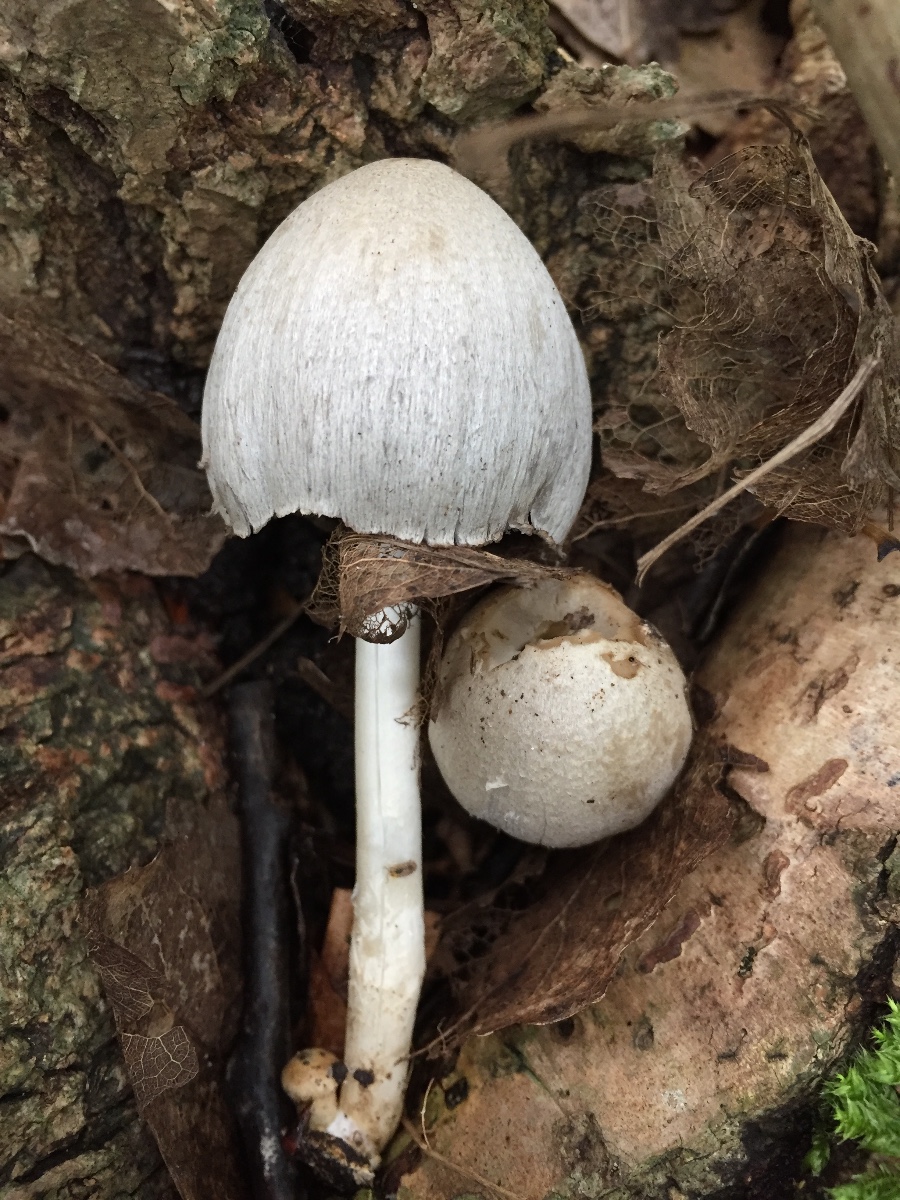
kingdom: Fungi
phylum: Basidiomycota
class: Agaricomycetes
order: Agaricales
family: Psathyrellaceae
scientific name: Psathyrellaceae
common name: mørkhatfamilien
